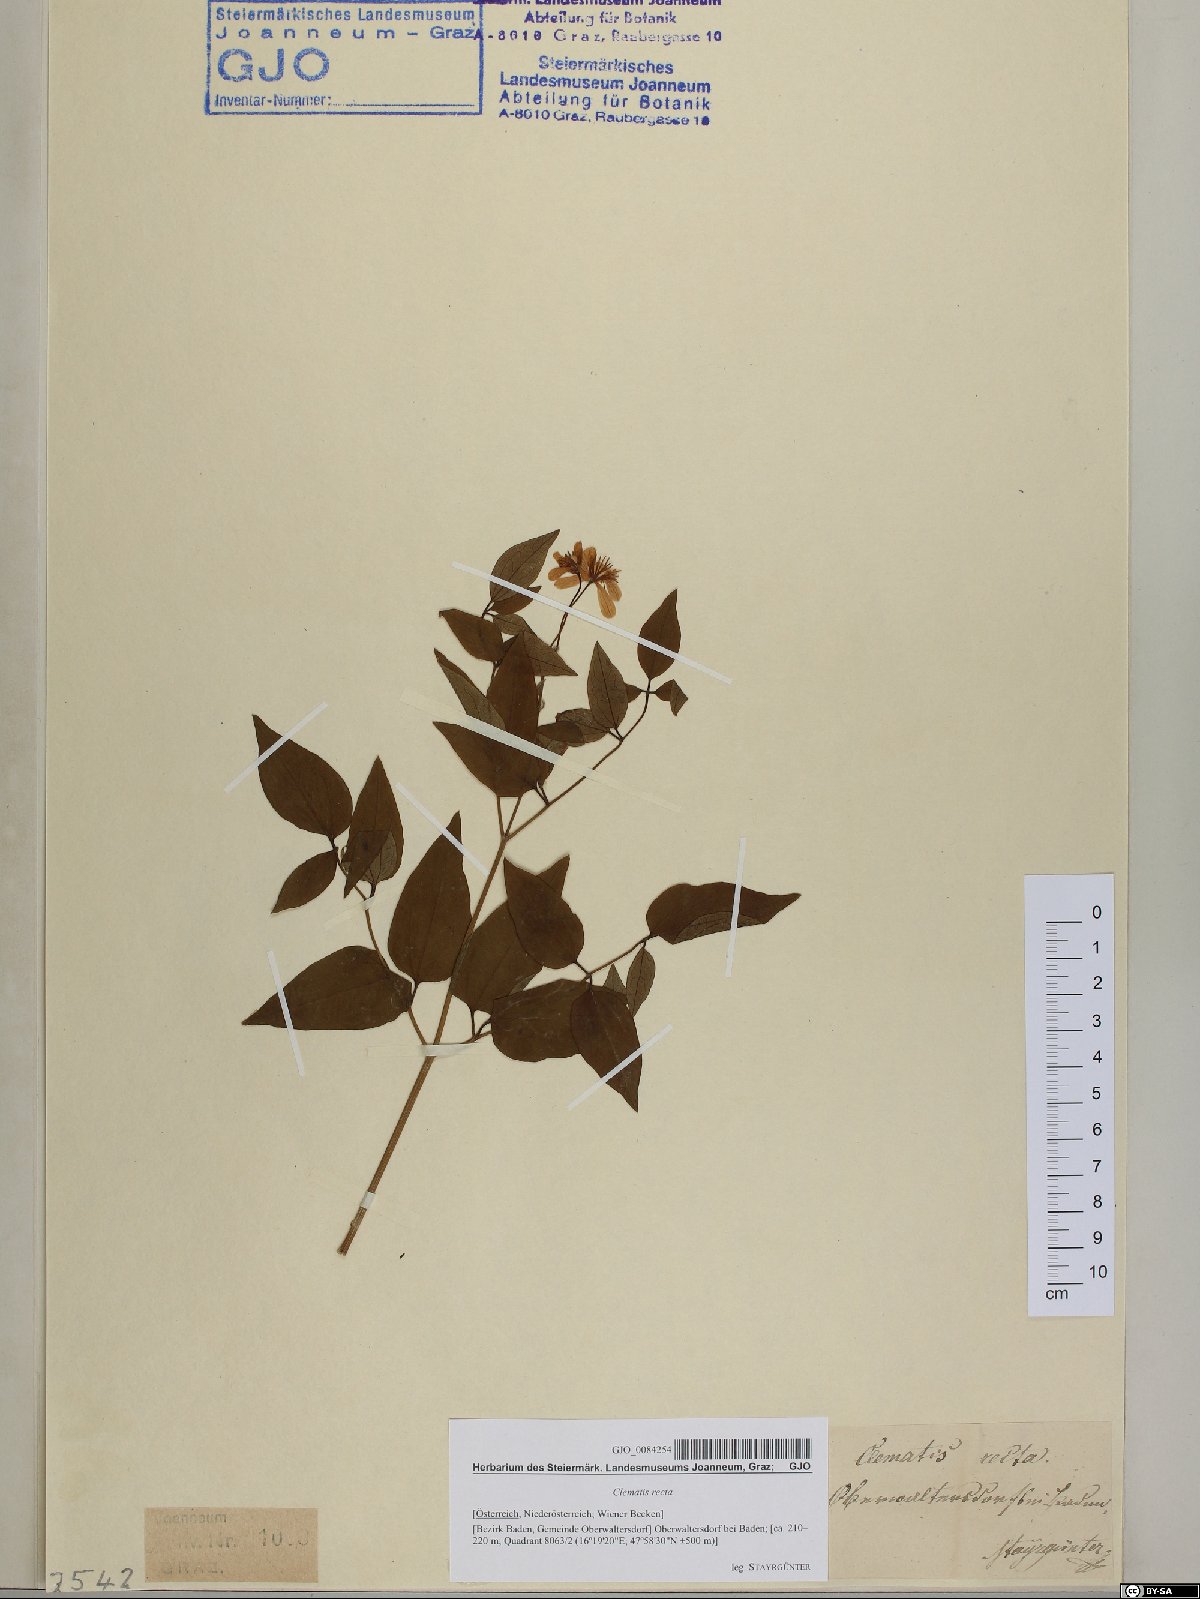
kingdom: Plantae
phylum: Tracheophyta
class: Magnoliopsida
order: Ranunculales
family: Ranunculaceae
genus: Clematis
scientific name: Clematis recta
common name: Ground clematis
